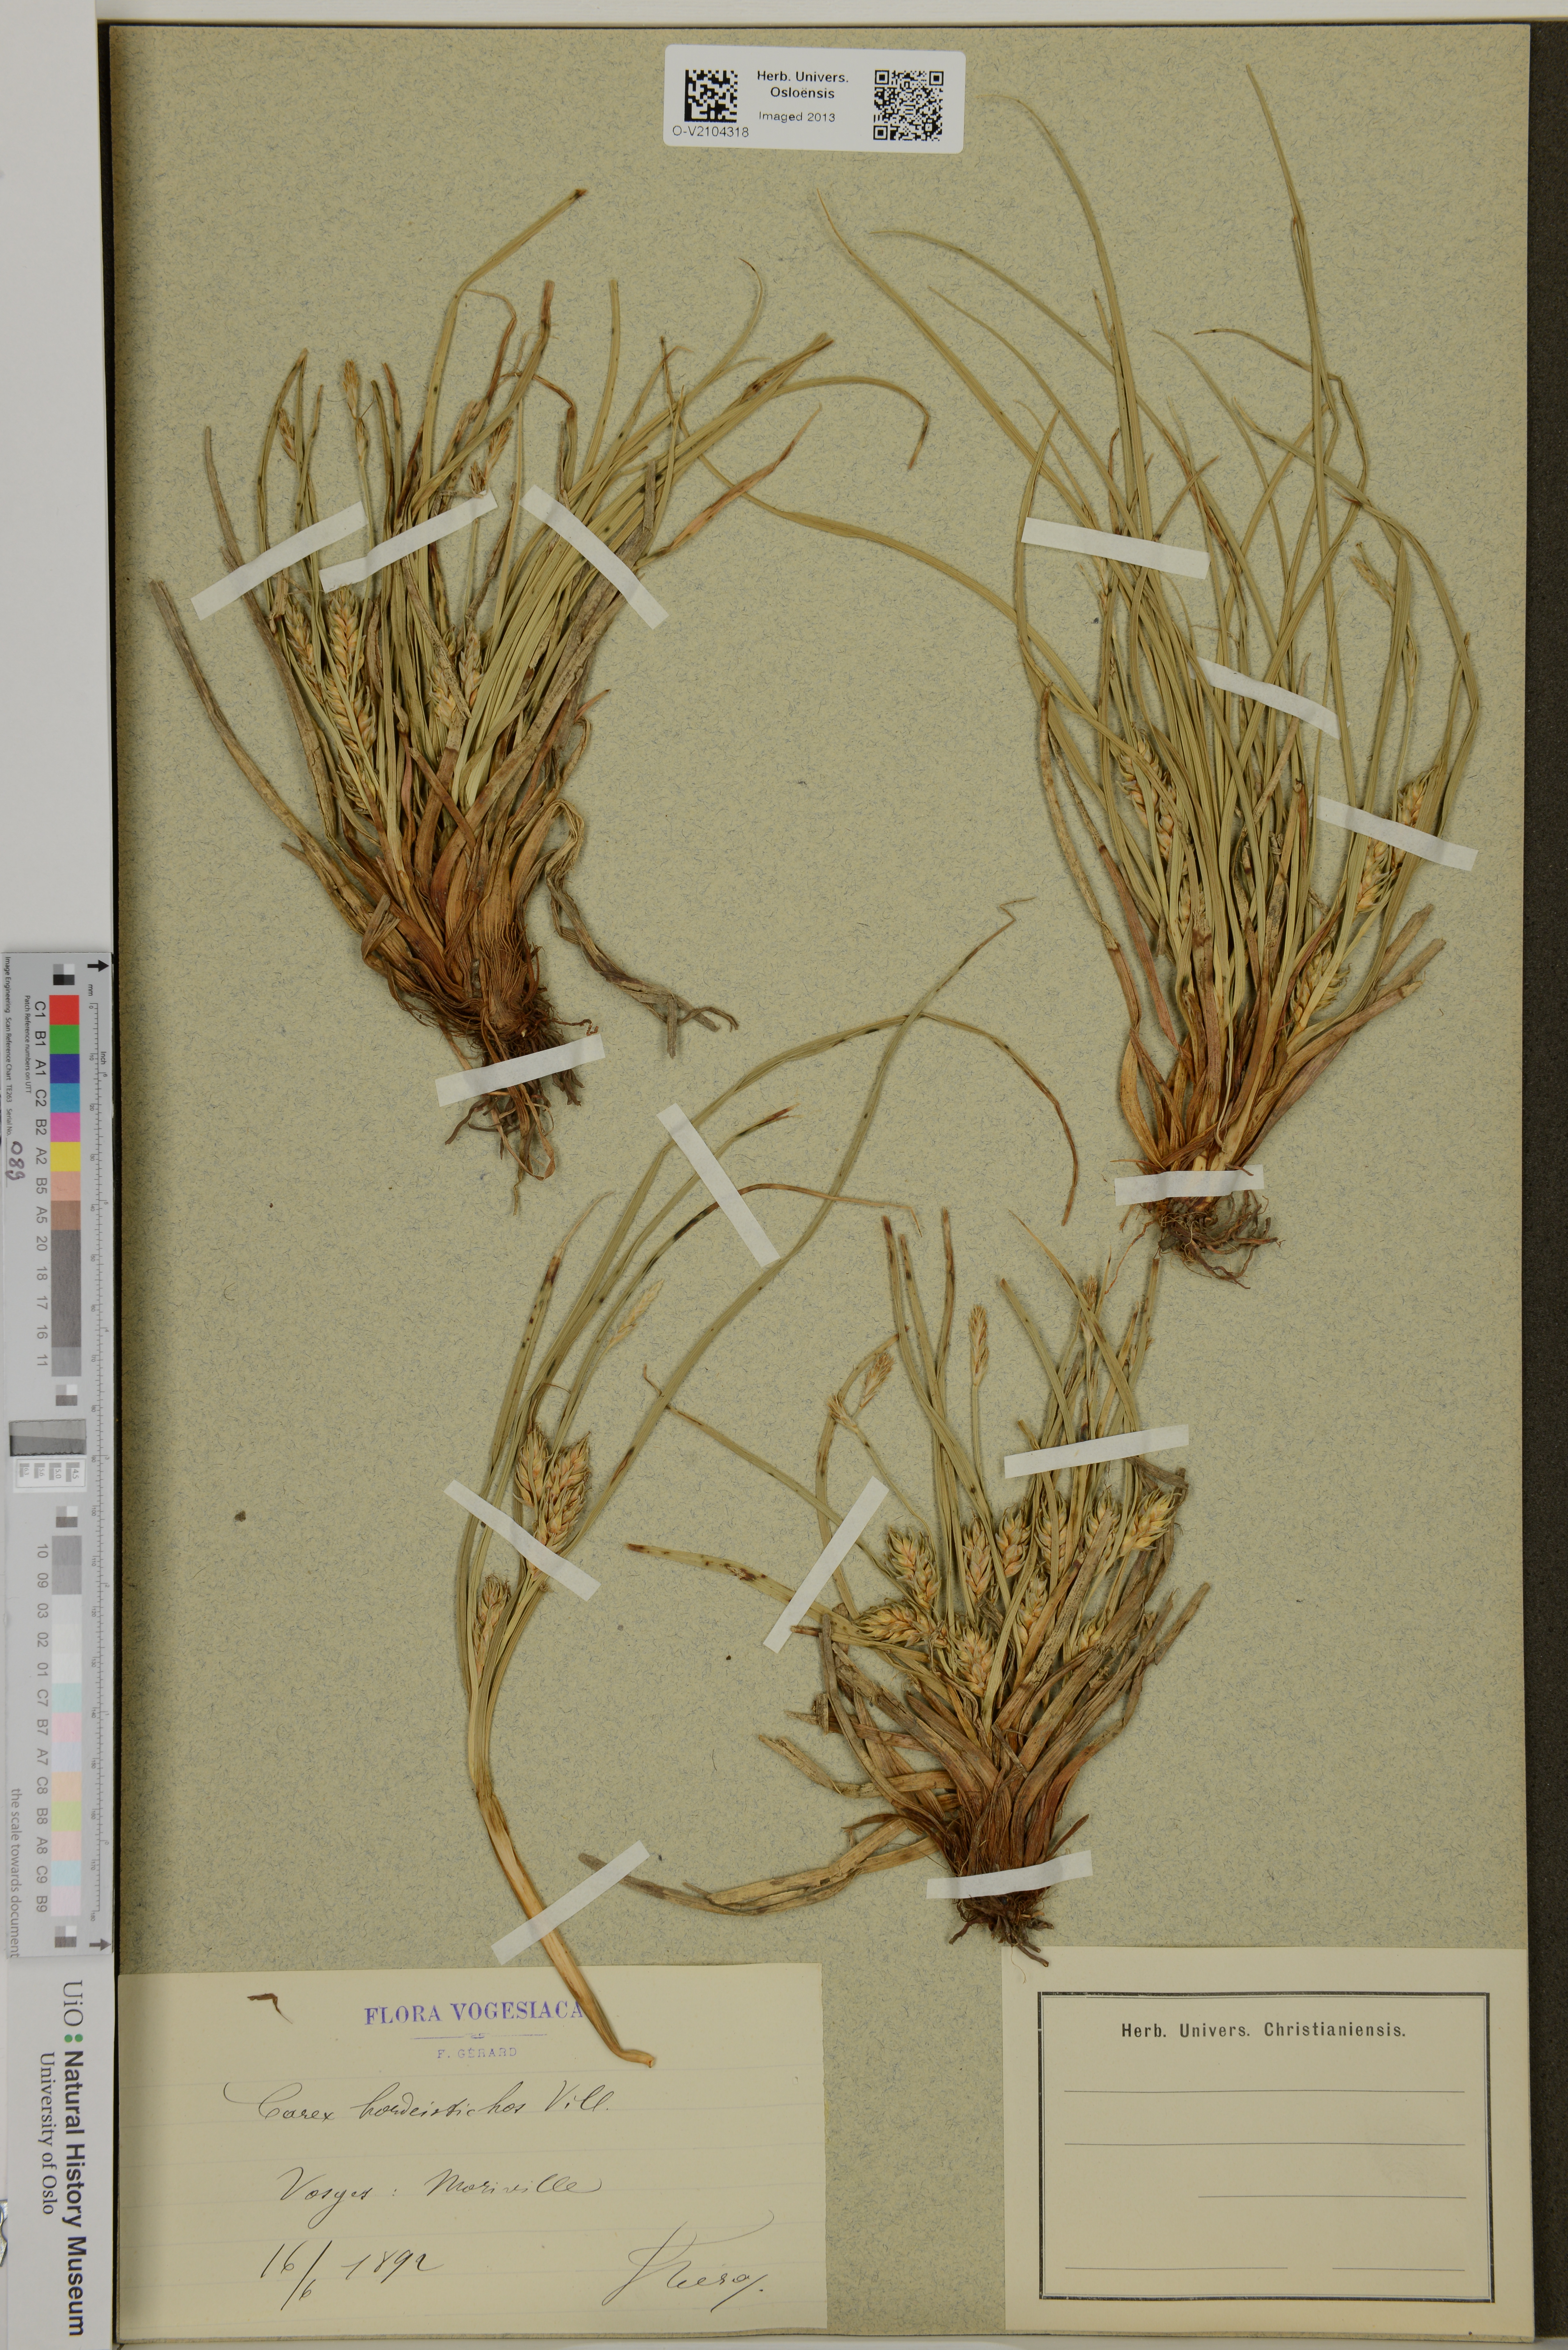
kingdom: Plantae
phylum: Tracheophyta
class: Liliopsida
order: Poales
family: Cyperaceae
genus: Carex
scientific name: Carex hordeistichos
